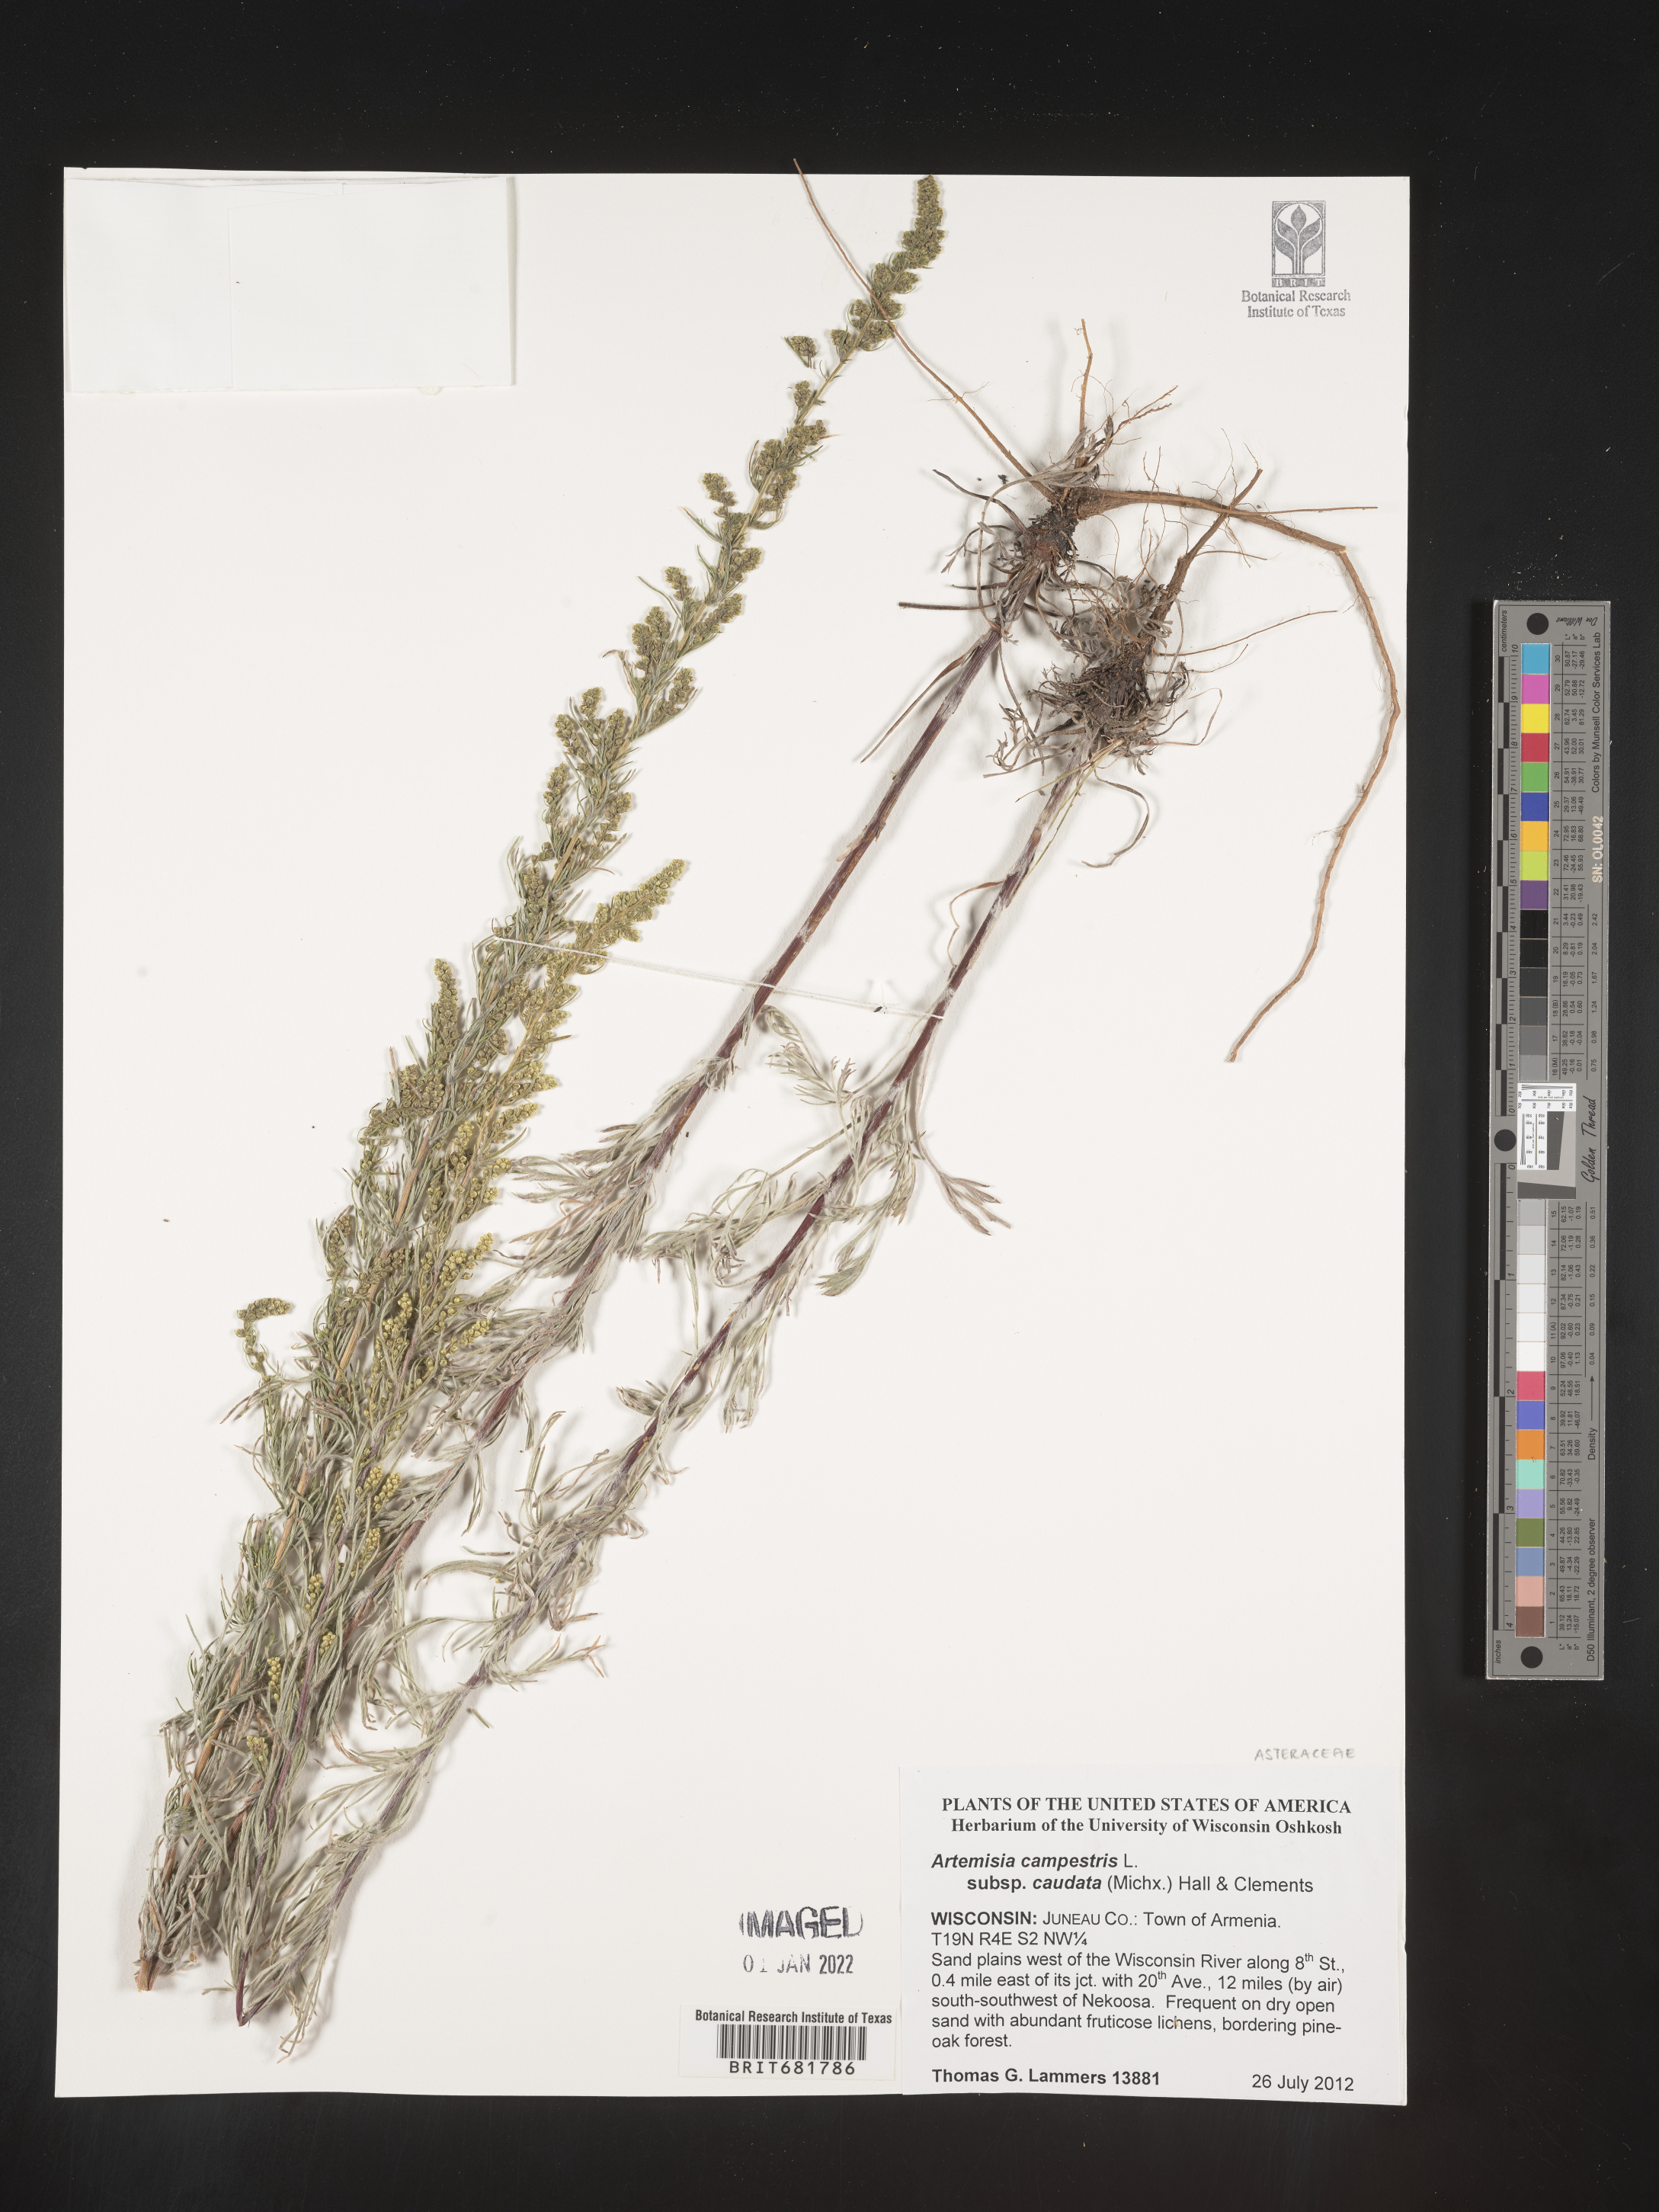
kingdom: Plantae
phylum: Tracheophyta
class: Magnoliopsida
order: Asterales
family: Asteraceae
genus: Artemisia
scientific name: Artemisia campestris
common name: Field wormwood
